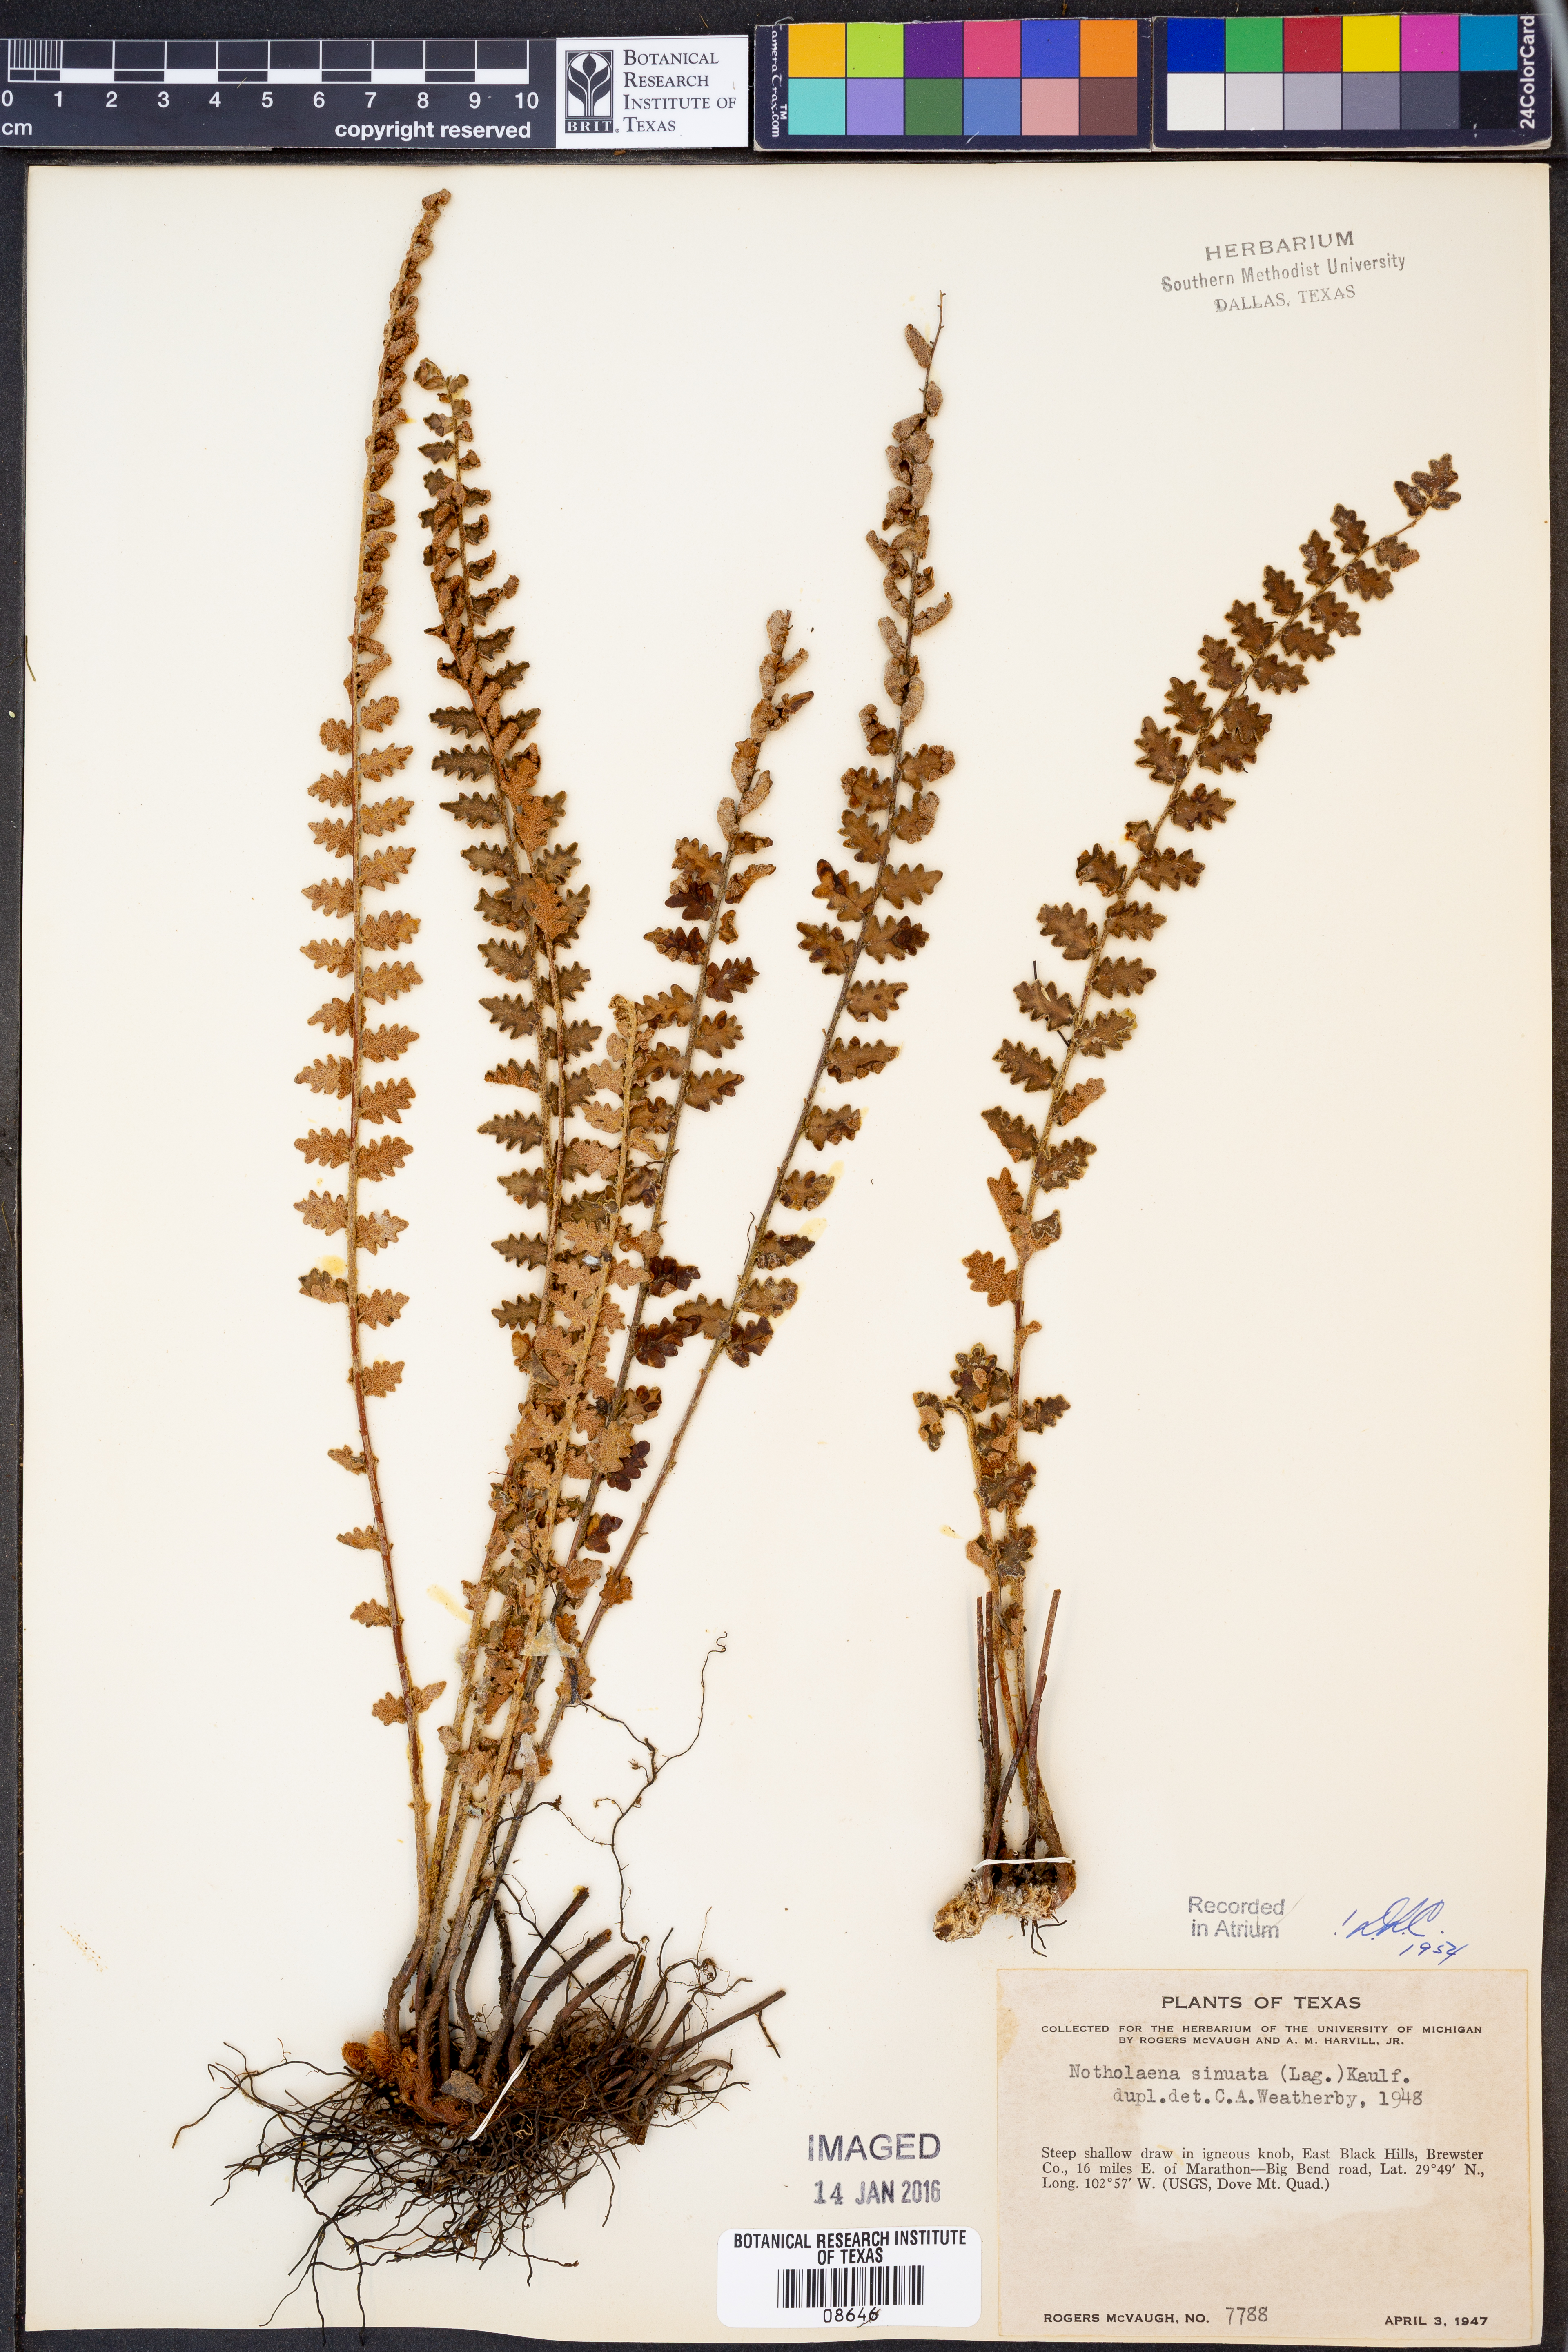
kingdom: Plantae
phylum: Tracheophyta
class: Polypodiopsida
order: Polypodiales
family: Pteridaceae
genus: Astrolepis
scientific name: Astrolepis sinuata
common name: Wavy scaly cloakfern
